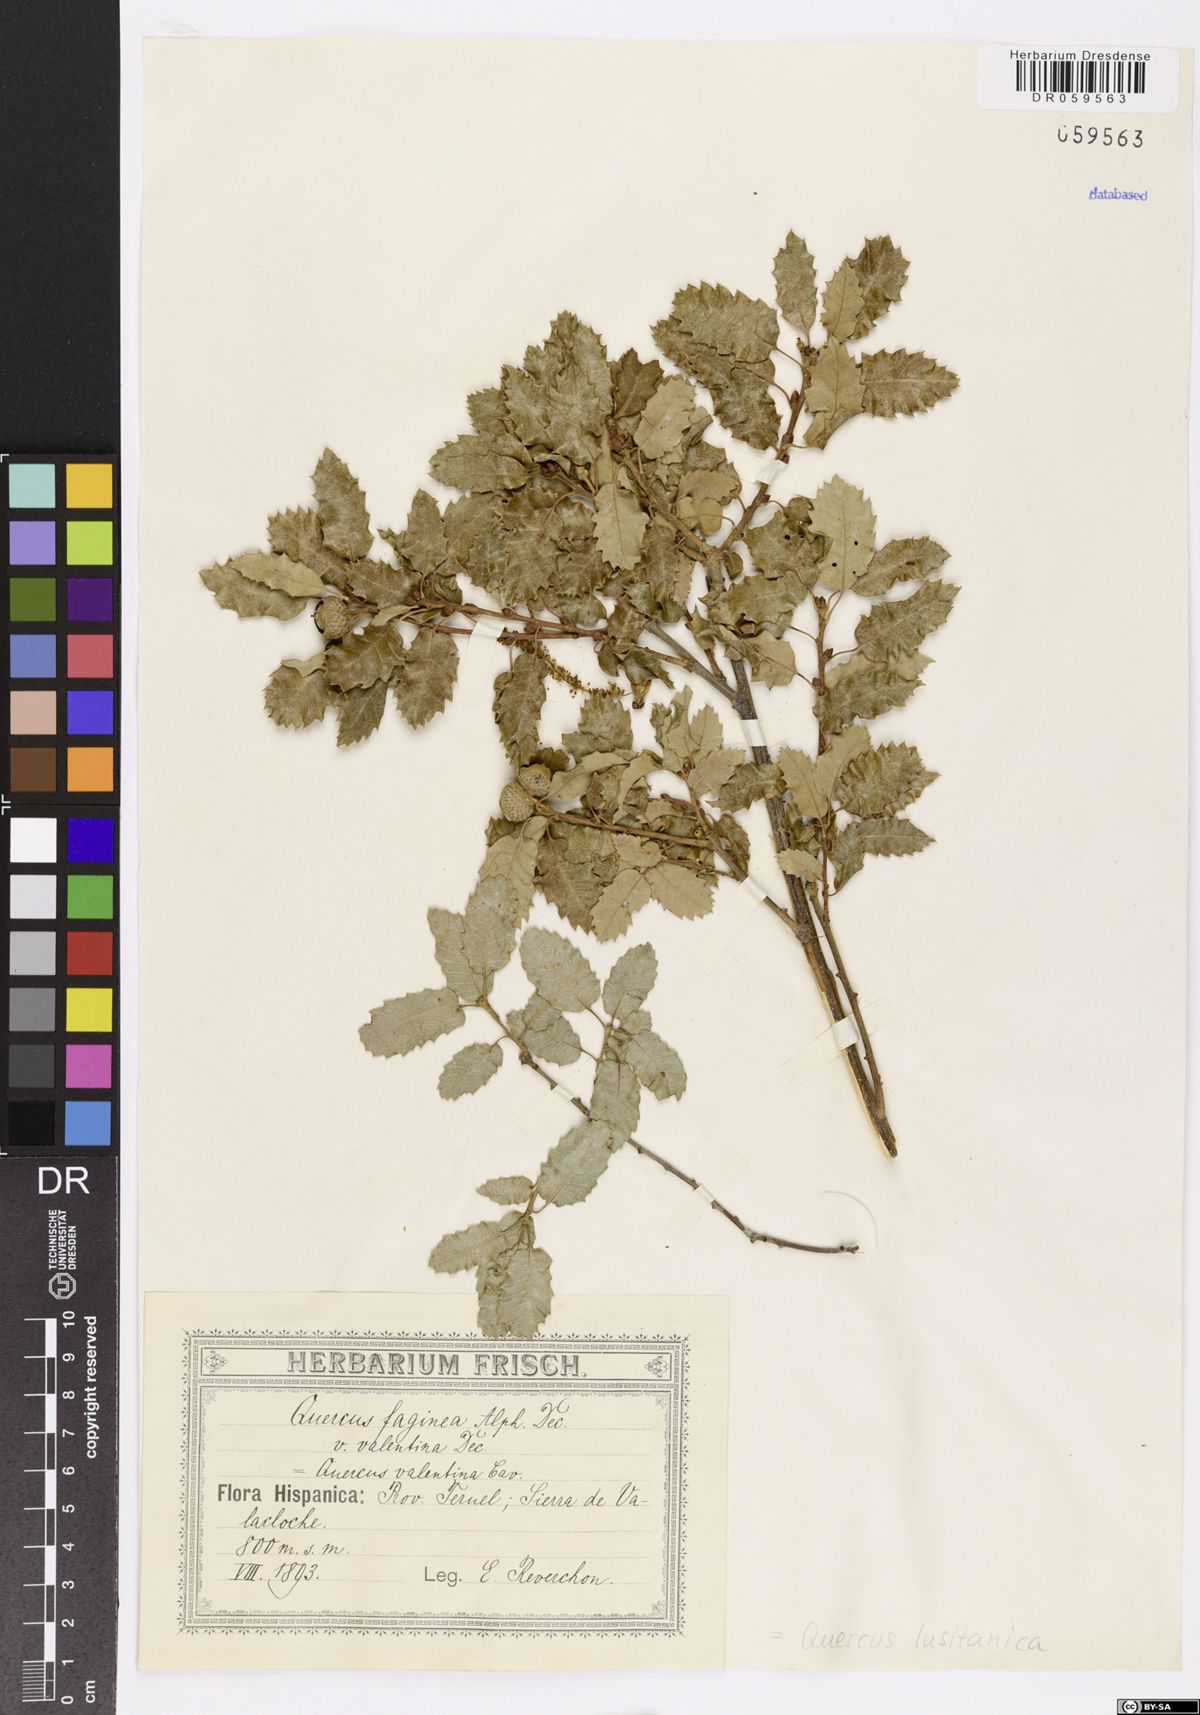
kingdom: Plantae
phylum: Tracheophyta
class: Magnoliopsida
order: Fagales
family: Fagaceae
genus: Quercus
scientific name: Quercus lusitanica
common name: Scrub gall oak
